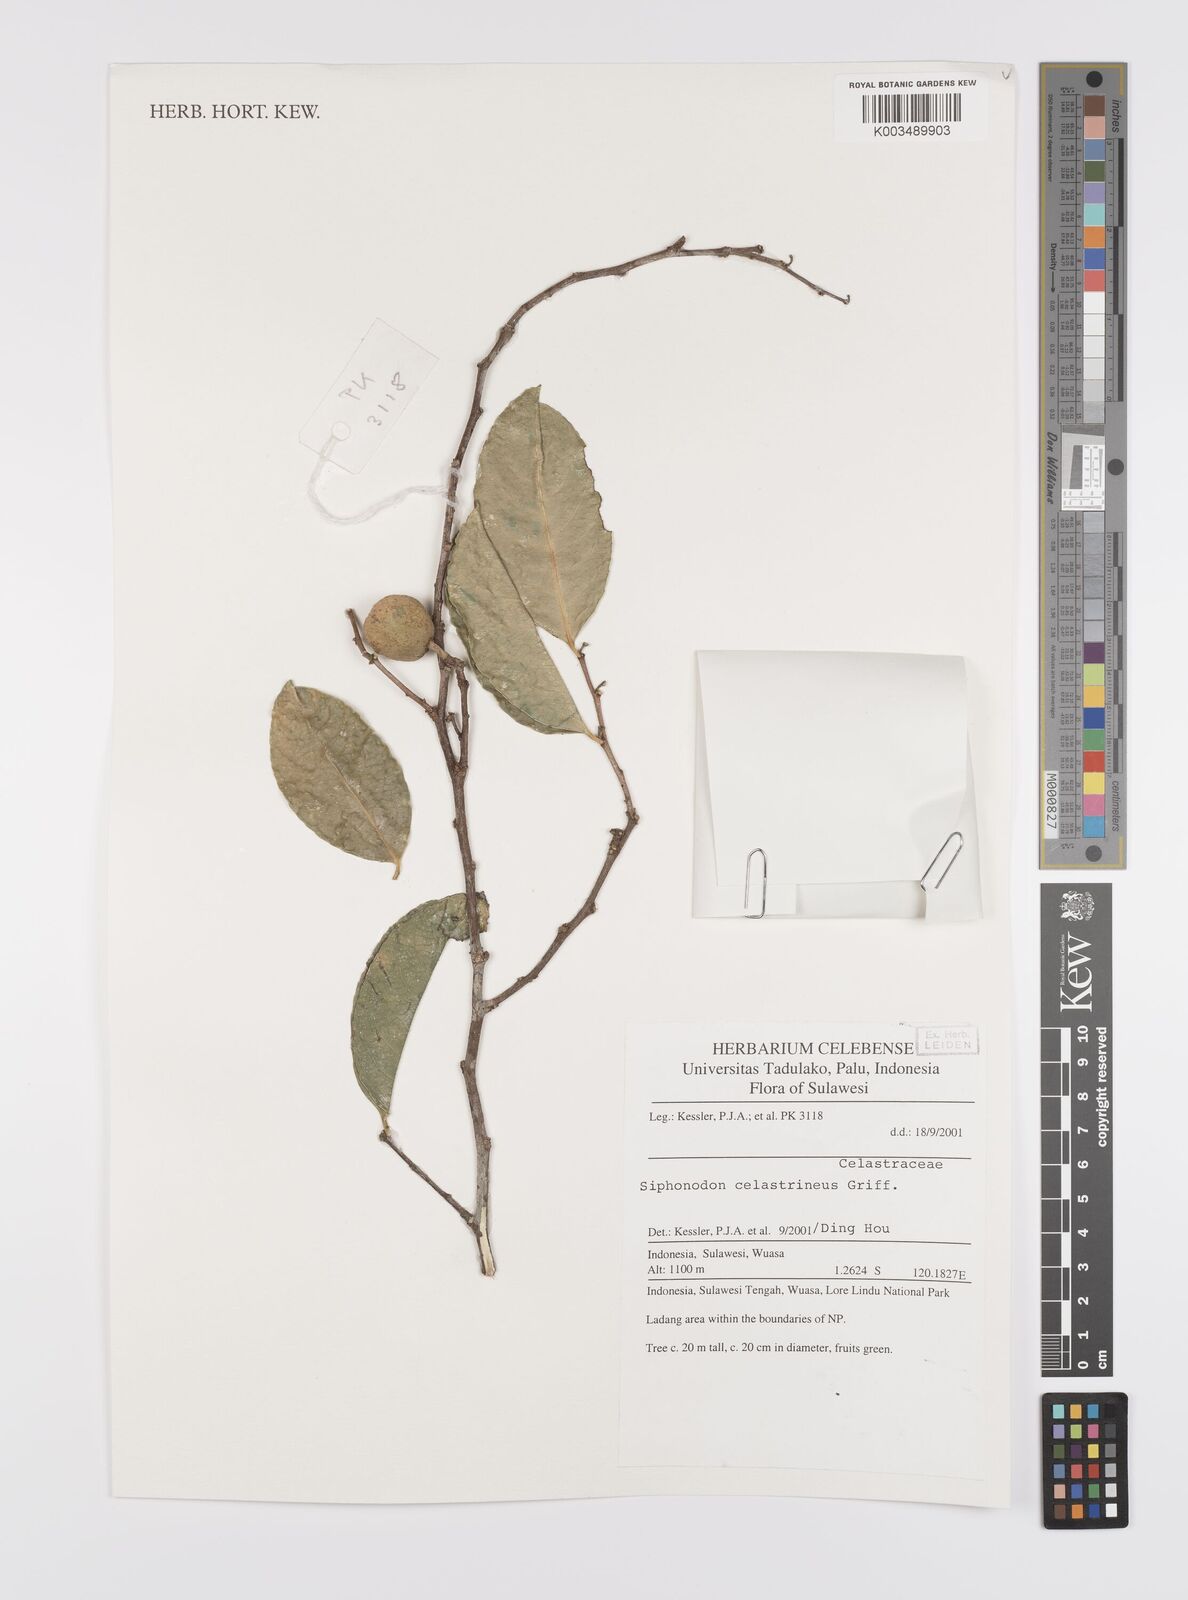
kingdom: Plantae
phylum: Tracheophyta
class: Magnoliopsida
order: Celastrales
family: Celastraceae
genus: Siphonodon
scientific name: Siphonodon celastrineus
